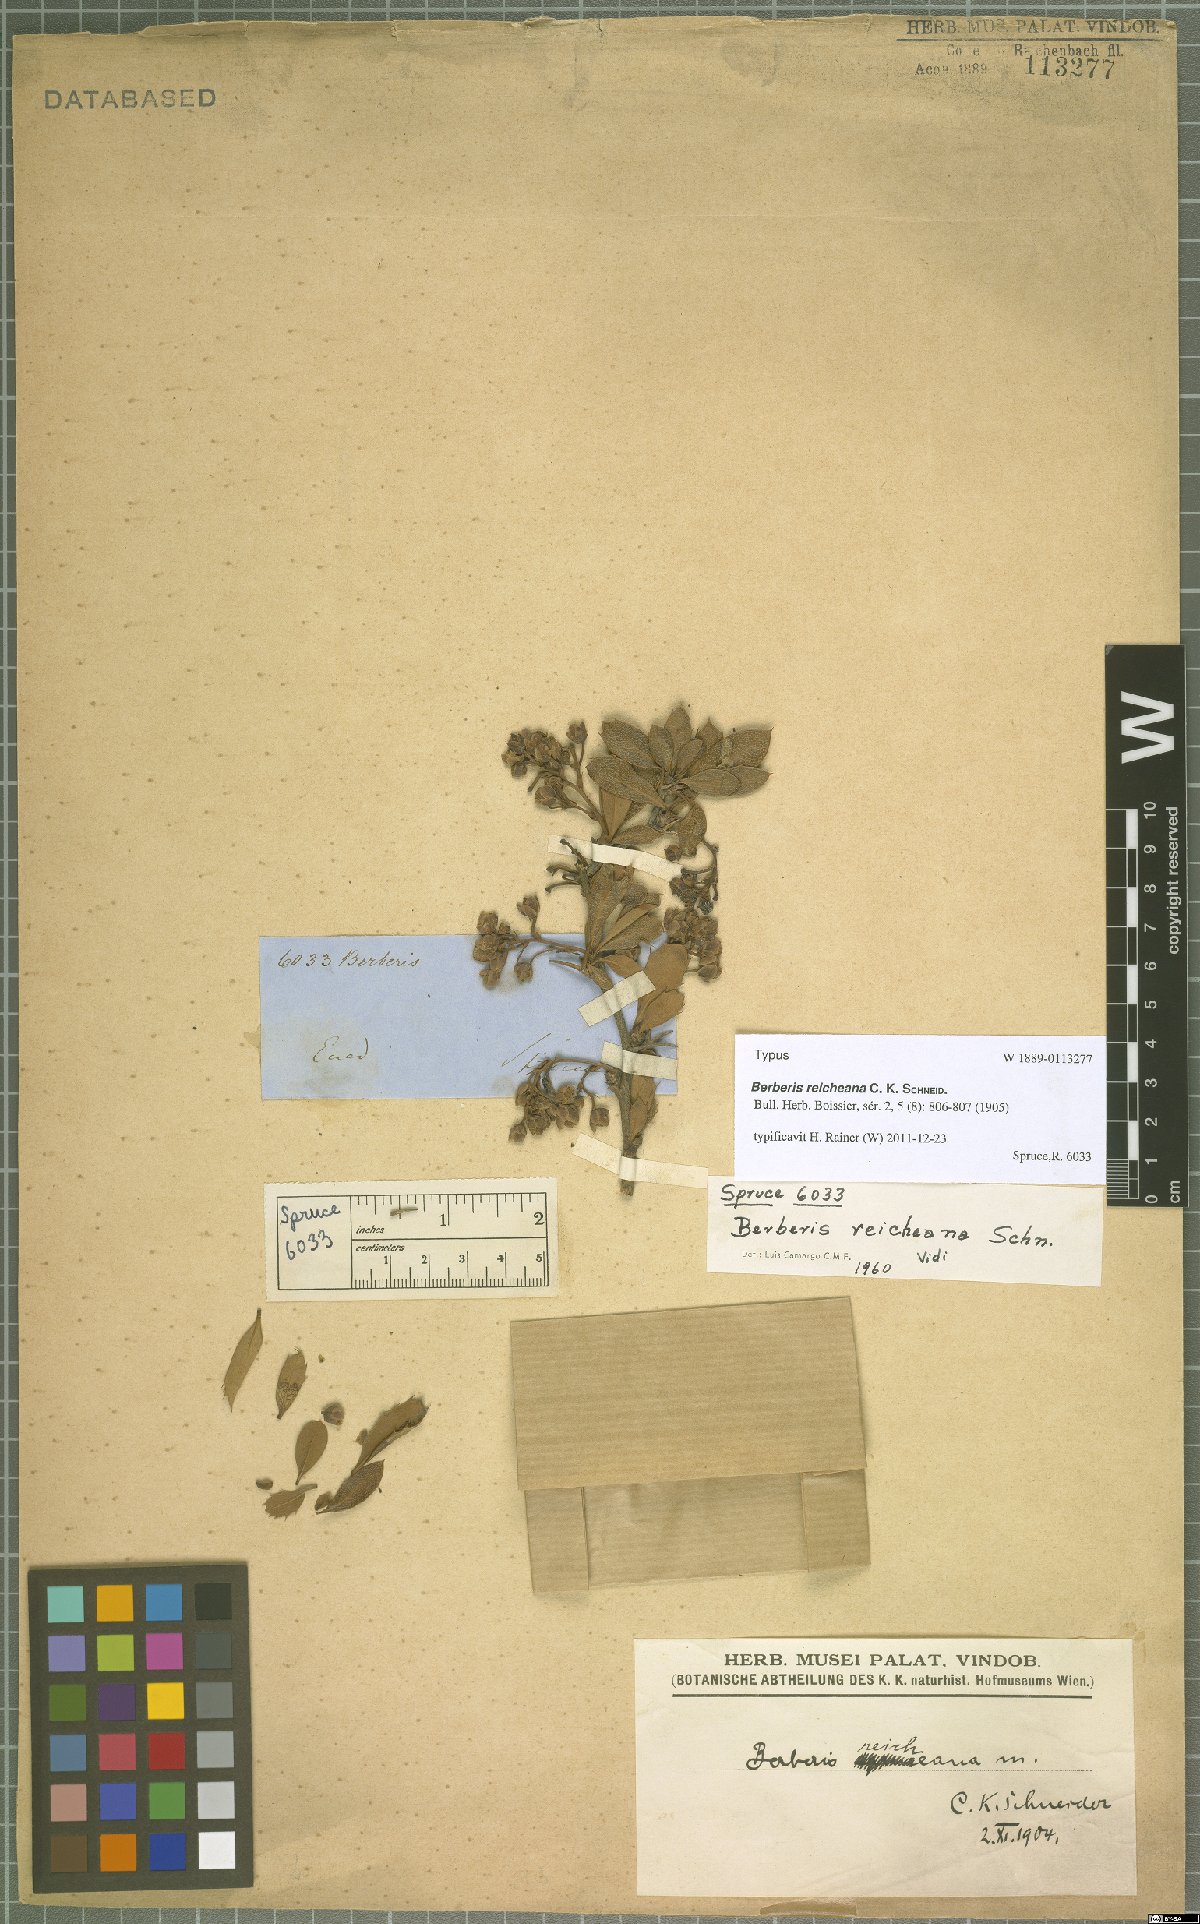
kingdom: Plantae
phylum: Tracheophyta
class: Magnoliopsida
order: Ranunculales
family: Berberidaceae
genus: Berberis
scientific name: Berberis reicheana
